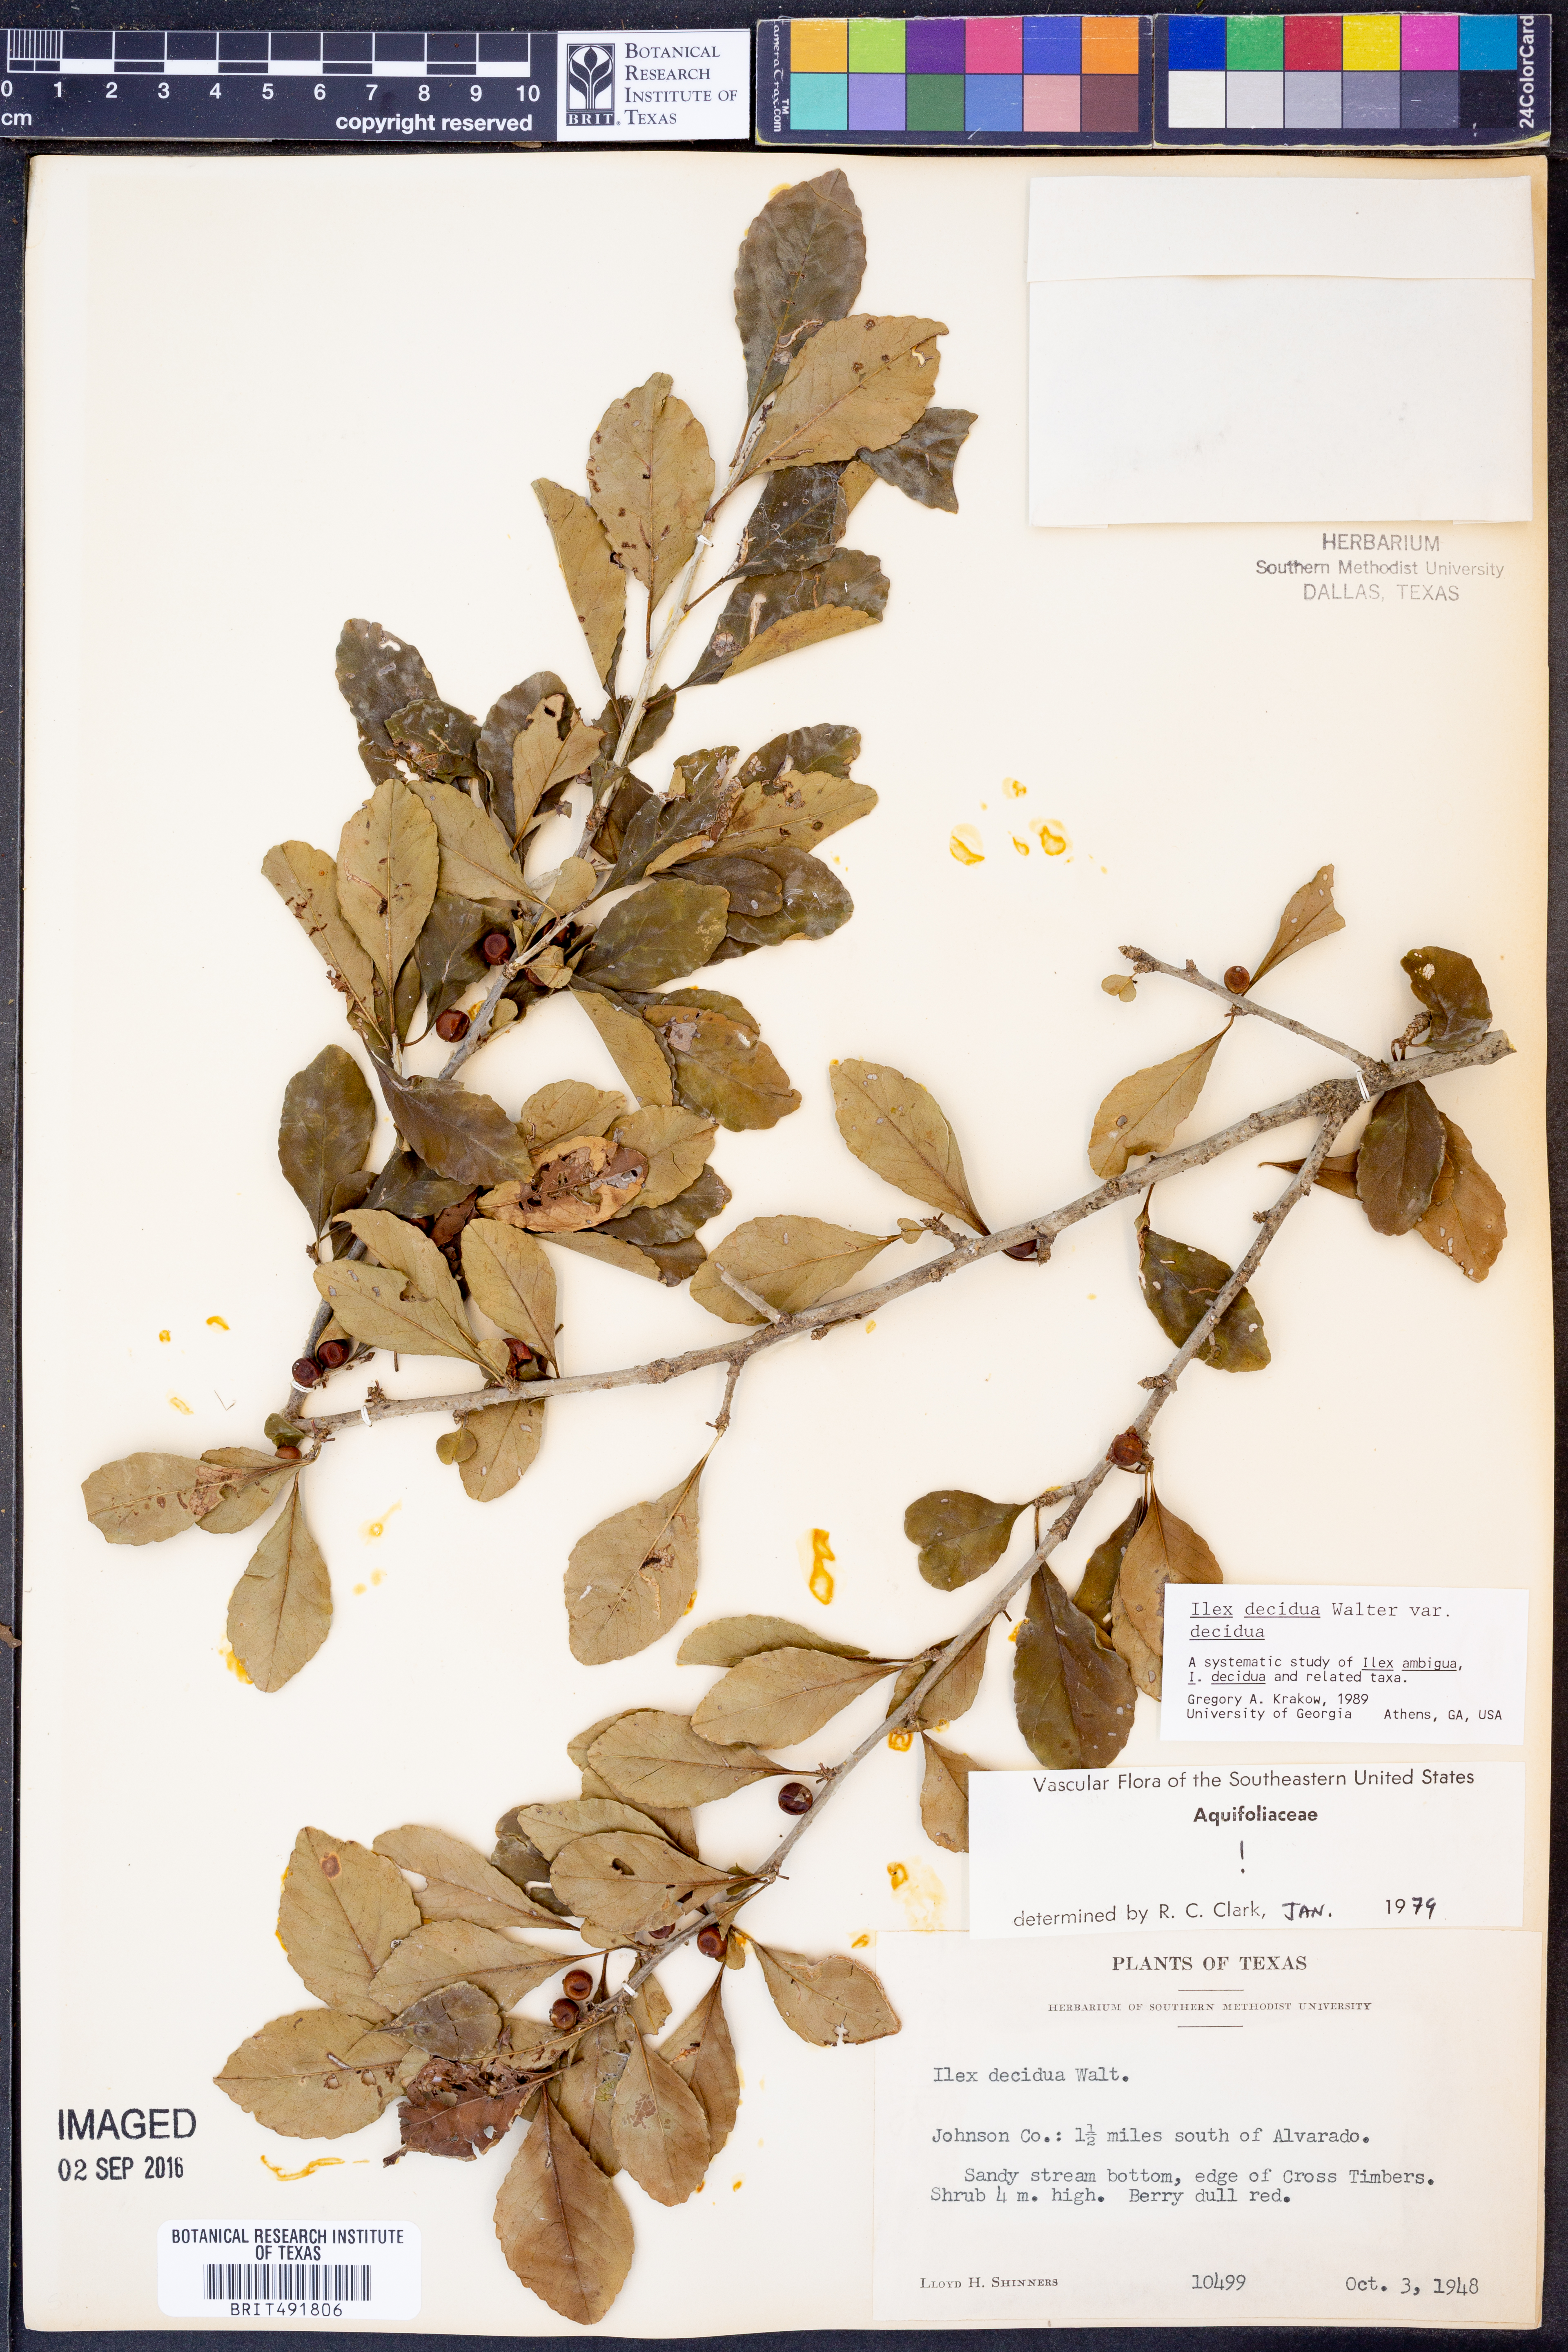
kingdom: Plantae
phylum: Tracheophyta
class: Magnoliopsida
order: Aquifoliales
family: Aquifoliaceae
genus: Ilex
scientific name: Ilex decidua
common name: Possum-haw
